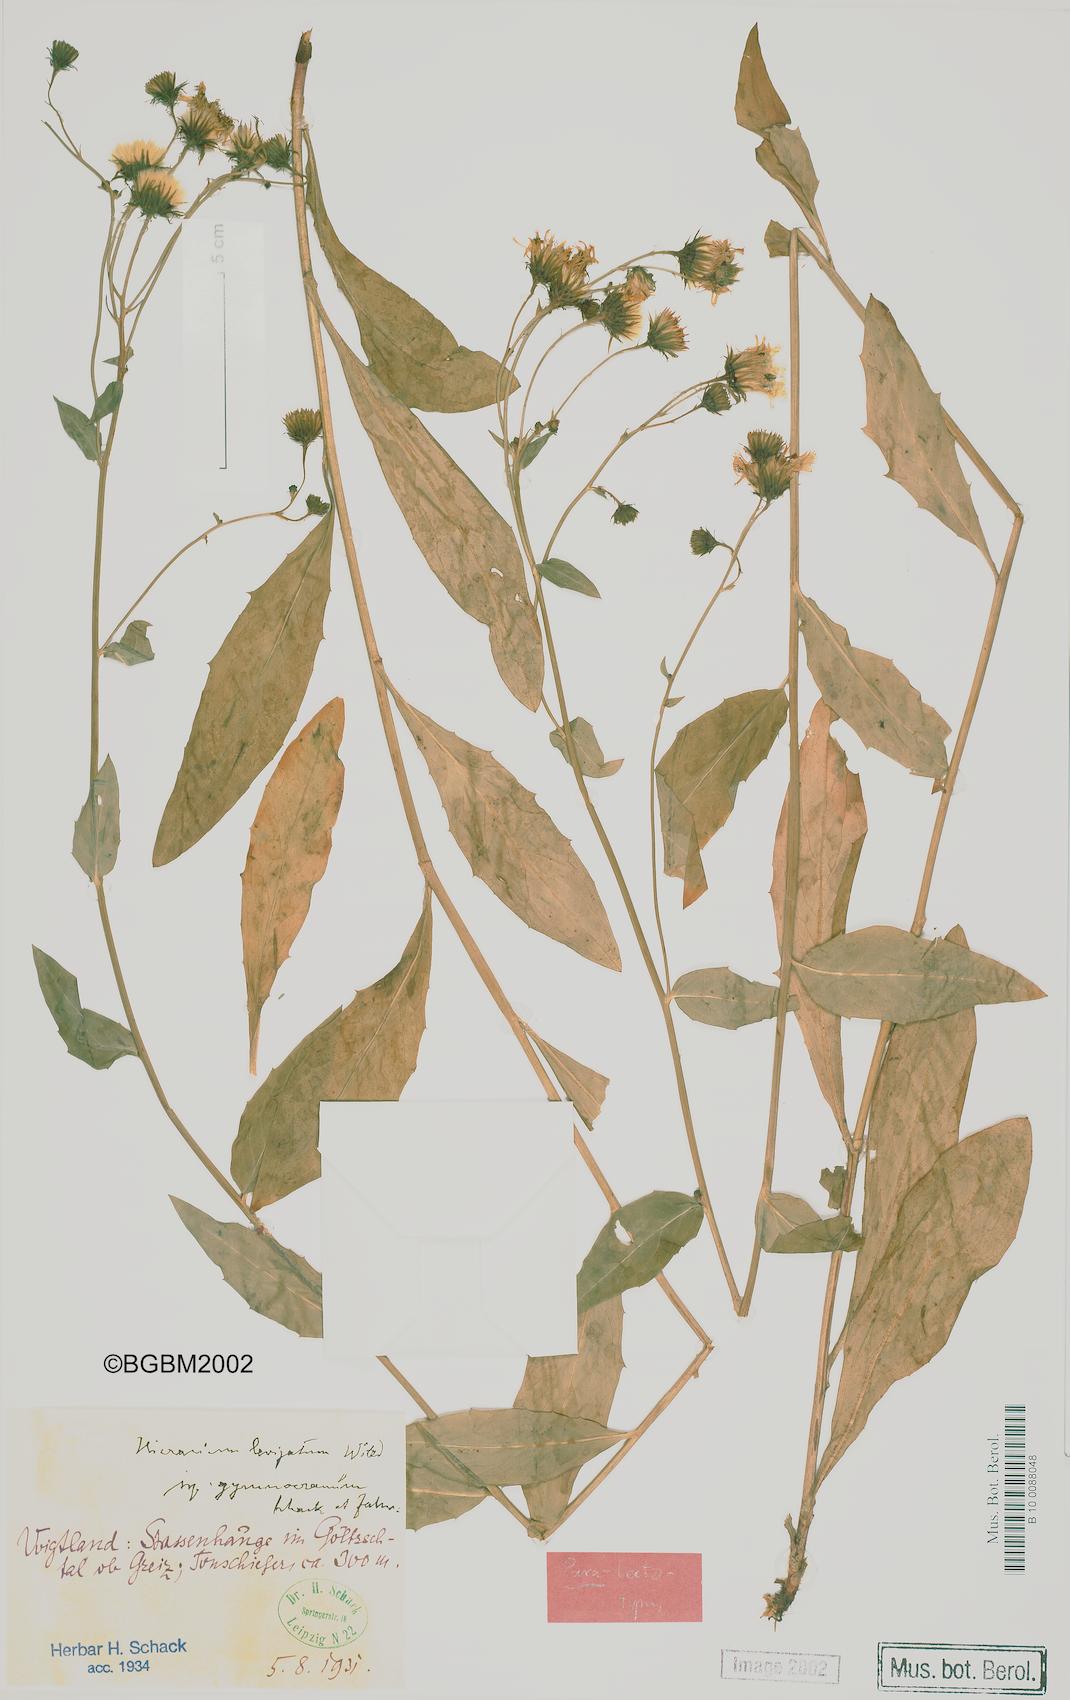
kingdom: Plantae
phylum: Tracheophyta
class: Magnoliopsida
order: Asterales
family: Asteraceae
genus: Hieracium
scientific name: Hieracium laevigatum
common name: Smooth hawkweed
